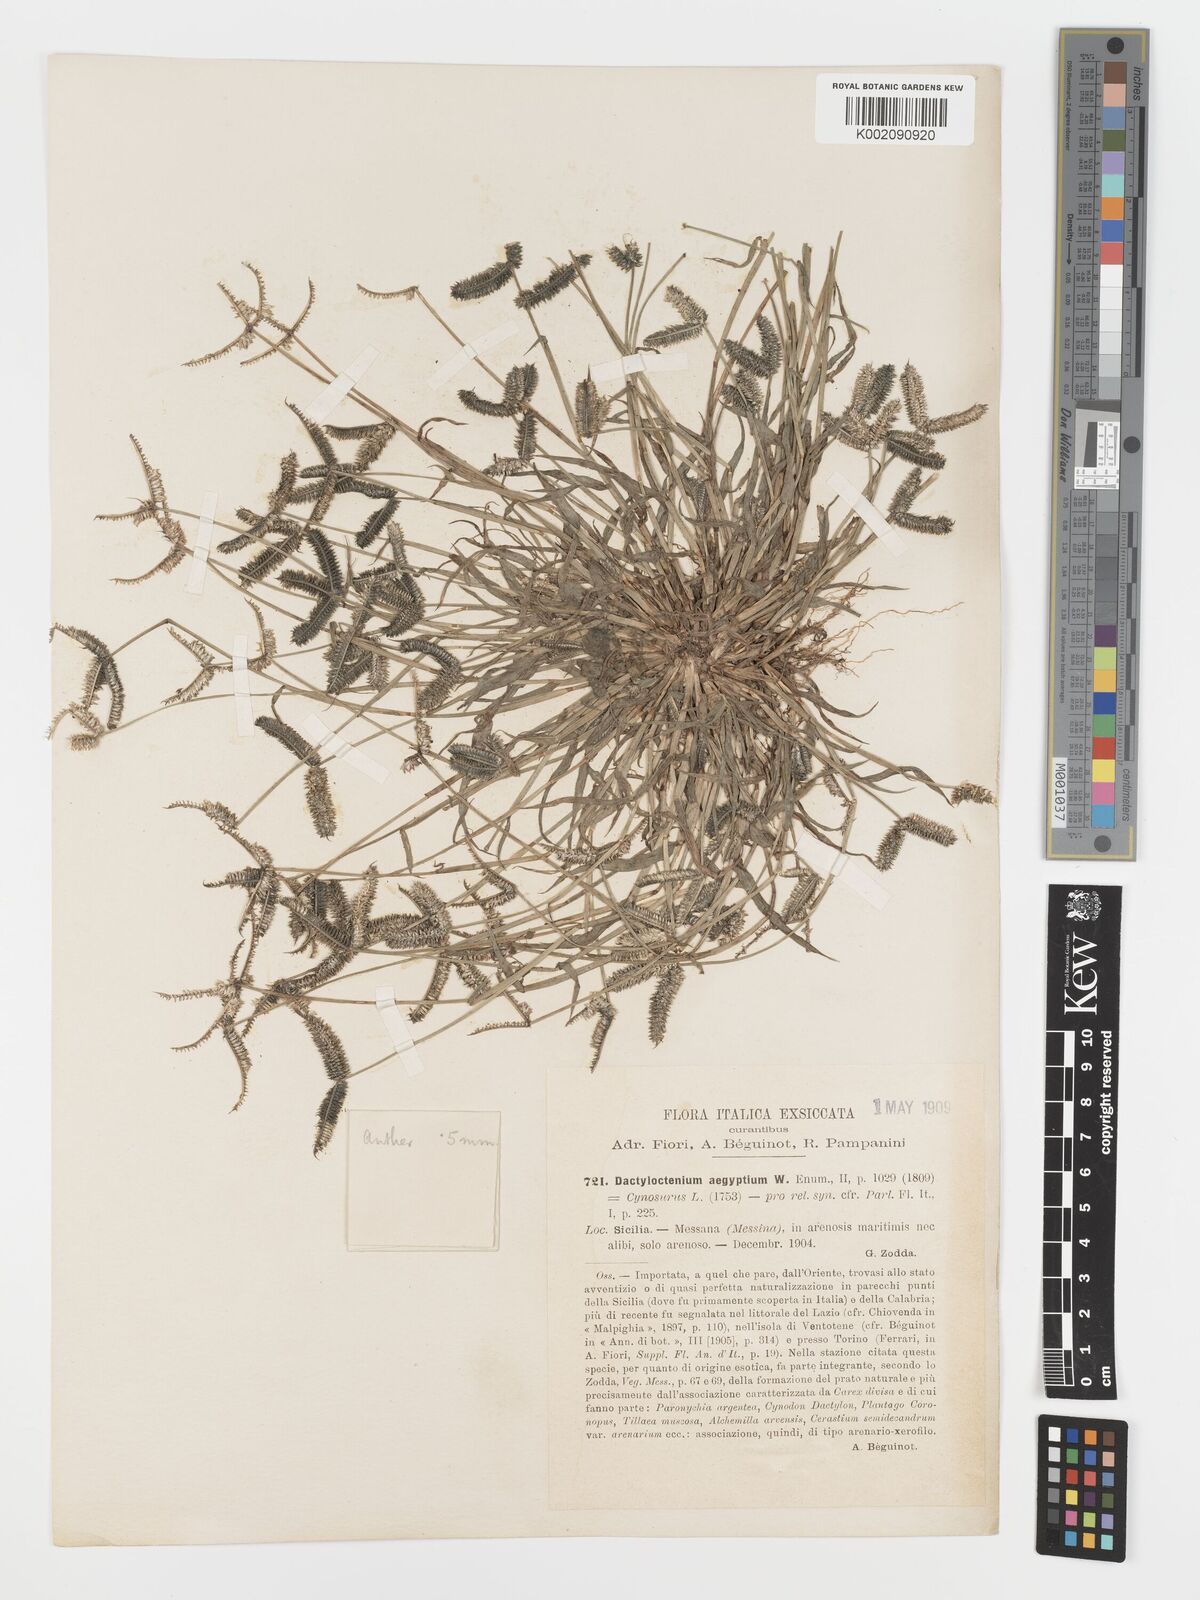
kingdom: Plantae
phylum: Tracheophyta
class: Liliopsida
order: Poales
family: Poaceae
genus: Dactyloctenium
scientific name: Dactyloctenium aegyptium
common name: Egyptian grass
